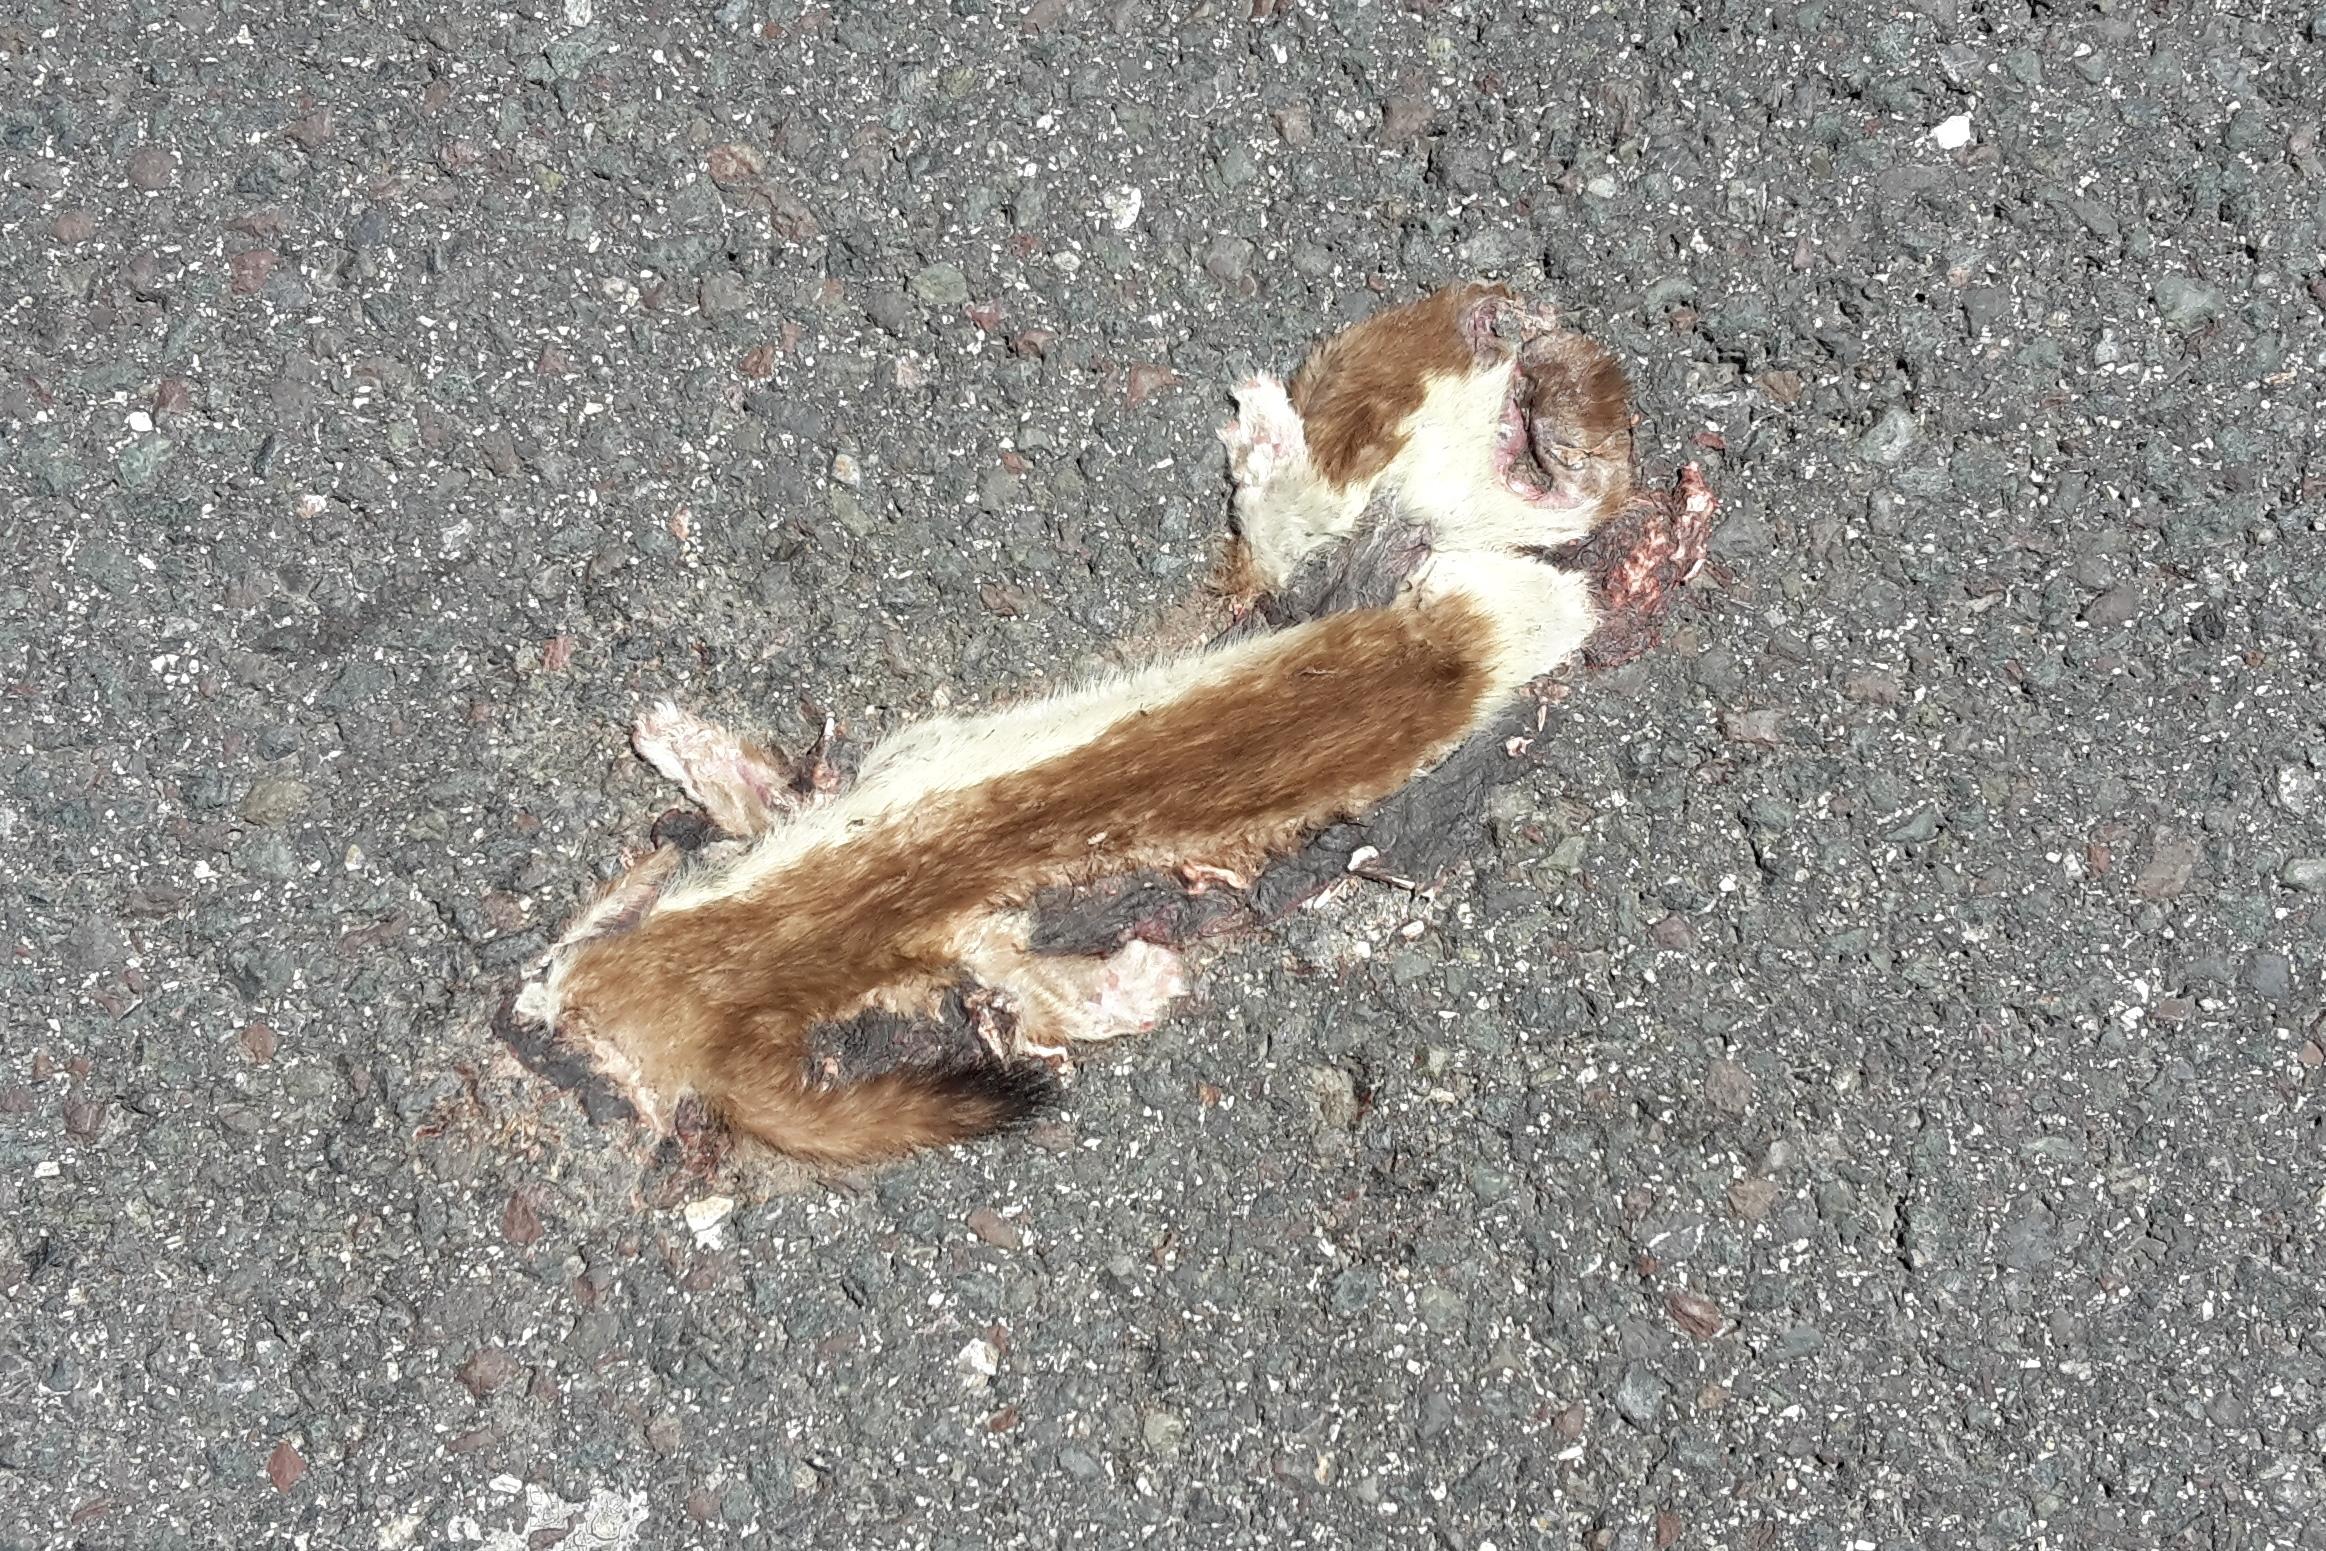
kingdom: Animalia
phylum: Chordata
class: Mammalia
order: Carnivora
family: Mustelidae
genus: Mustela
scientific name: Mustela erminea
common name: Stoat
